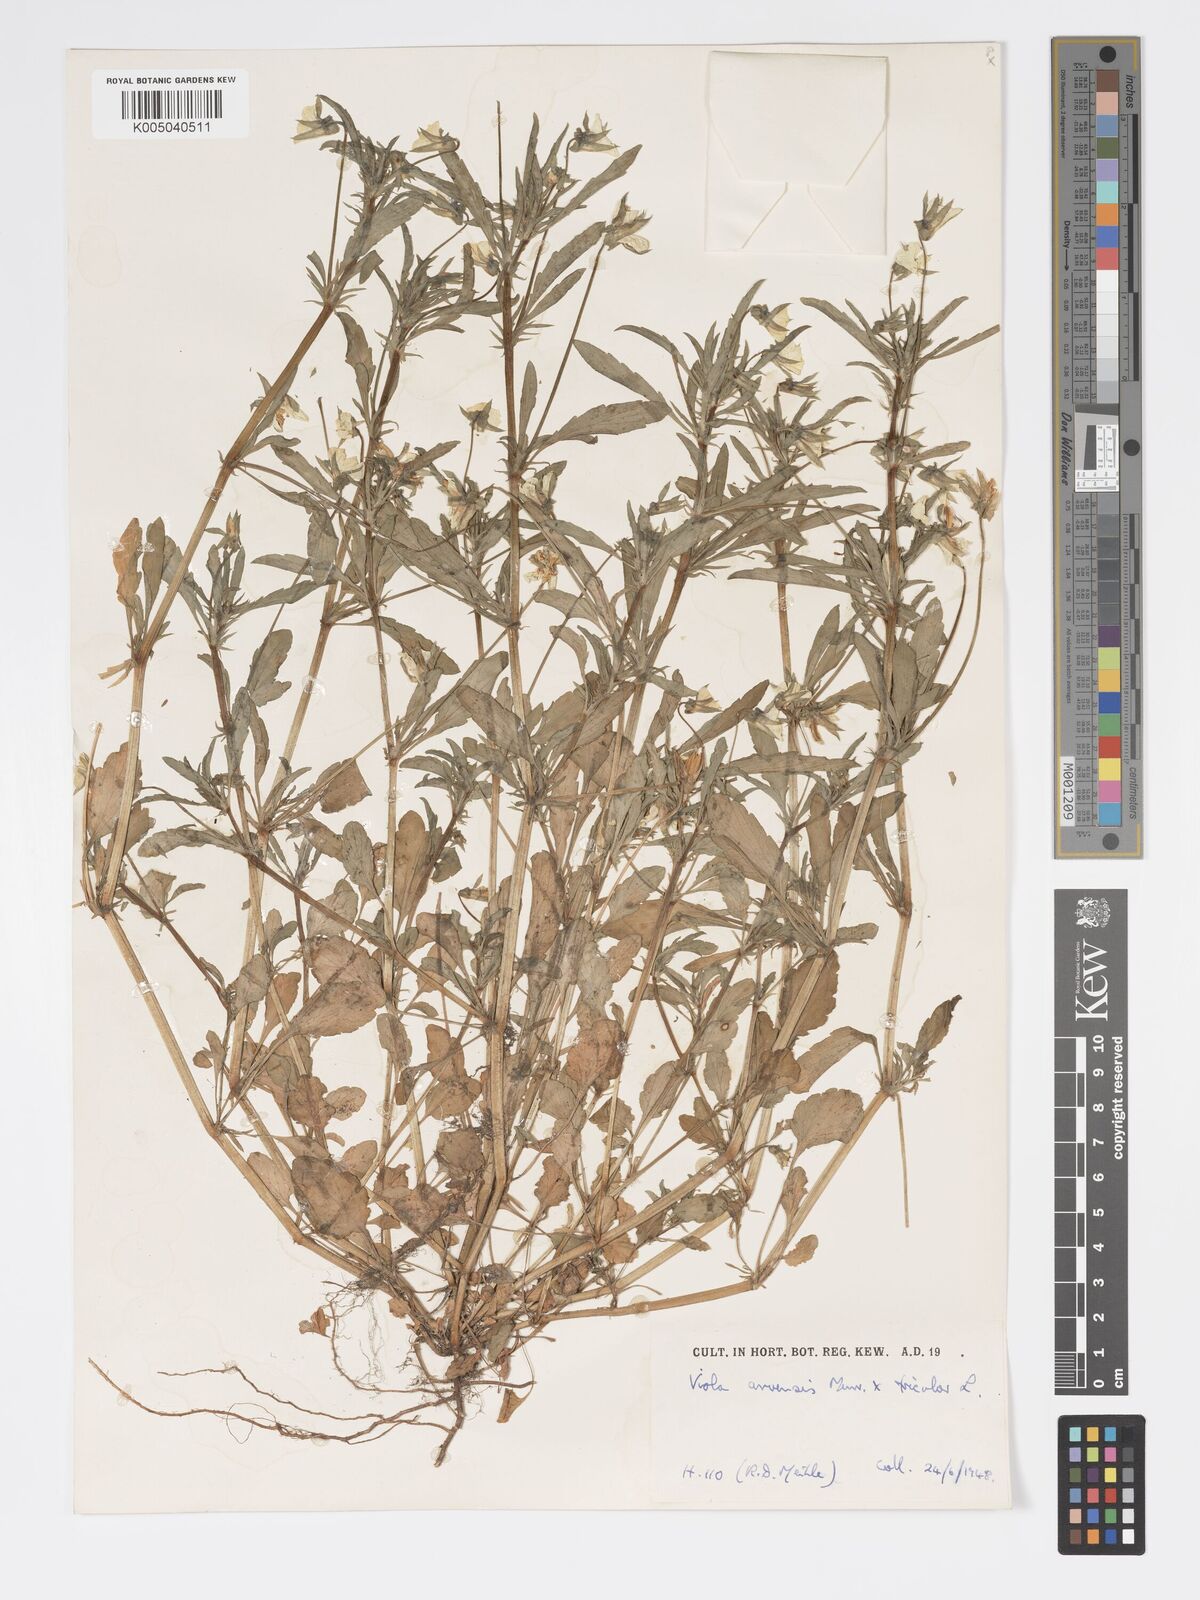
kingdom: Plantae
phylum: Tracheophyta
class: Magnoliopsida
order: Malpighiales
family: Violaceae
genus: Viola
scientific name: Viola arvensis
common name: Field pansy
